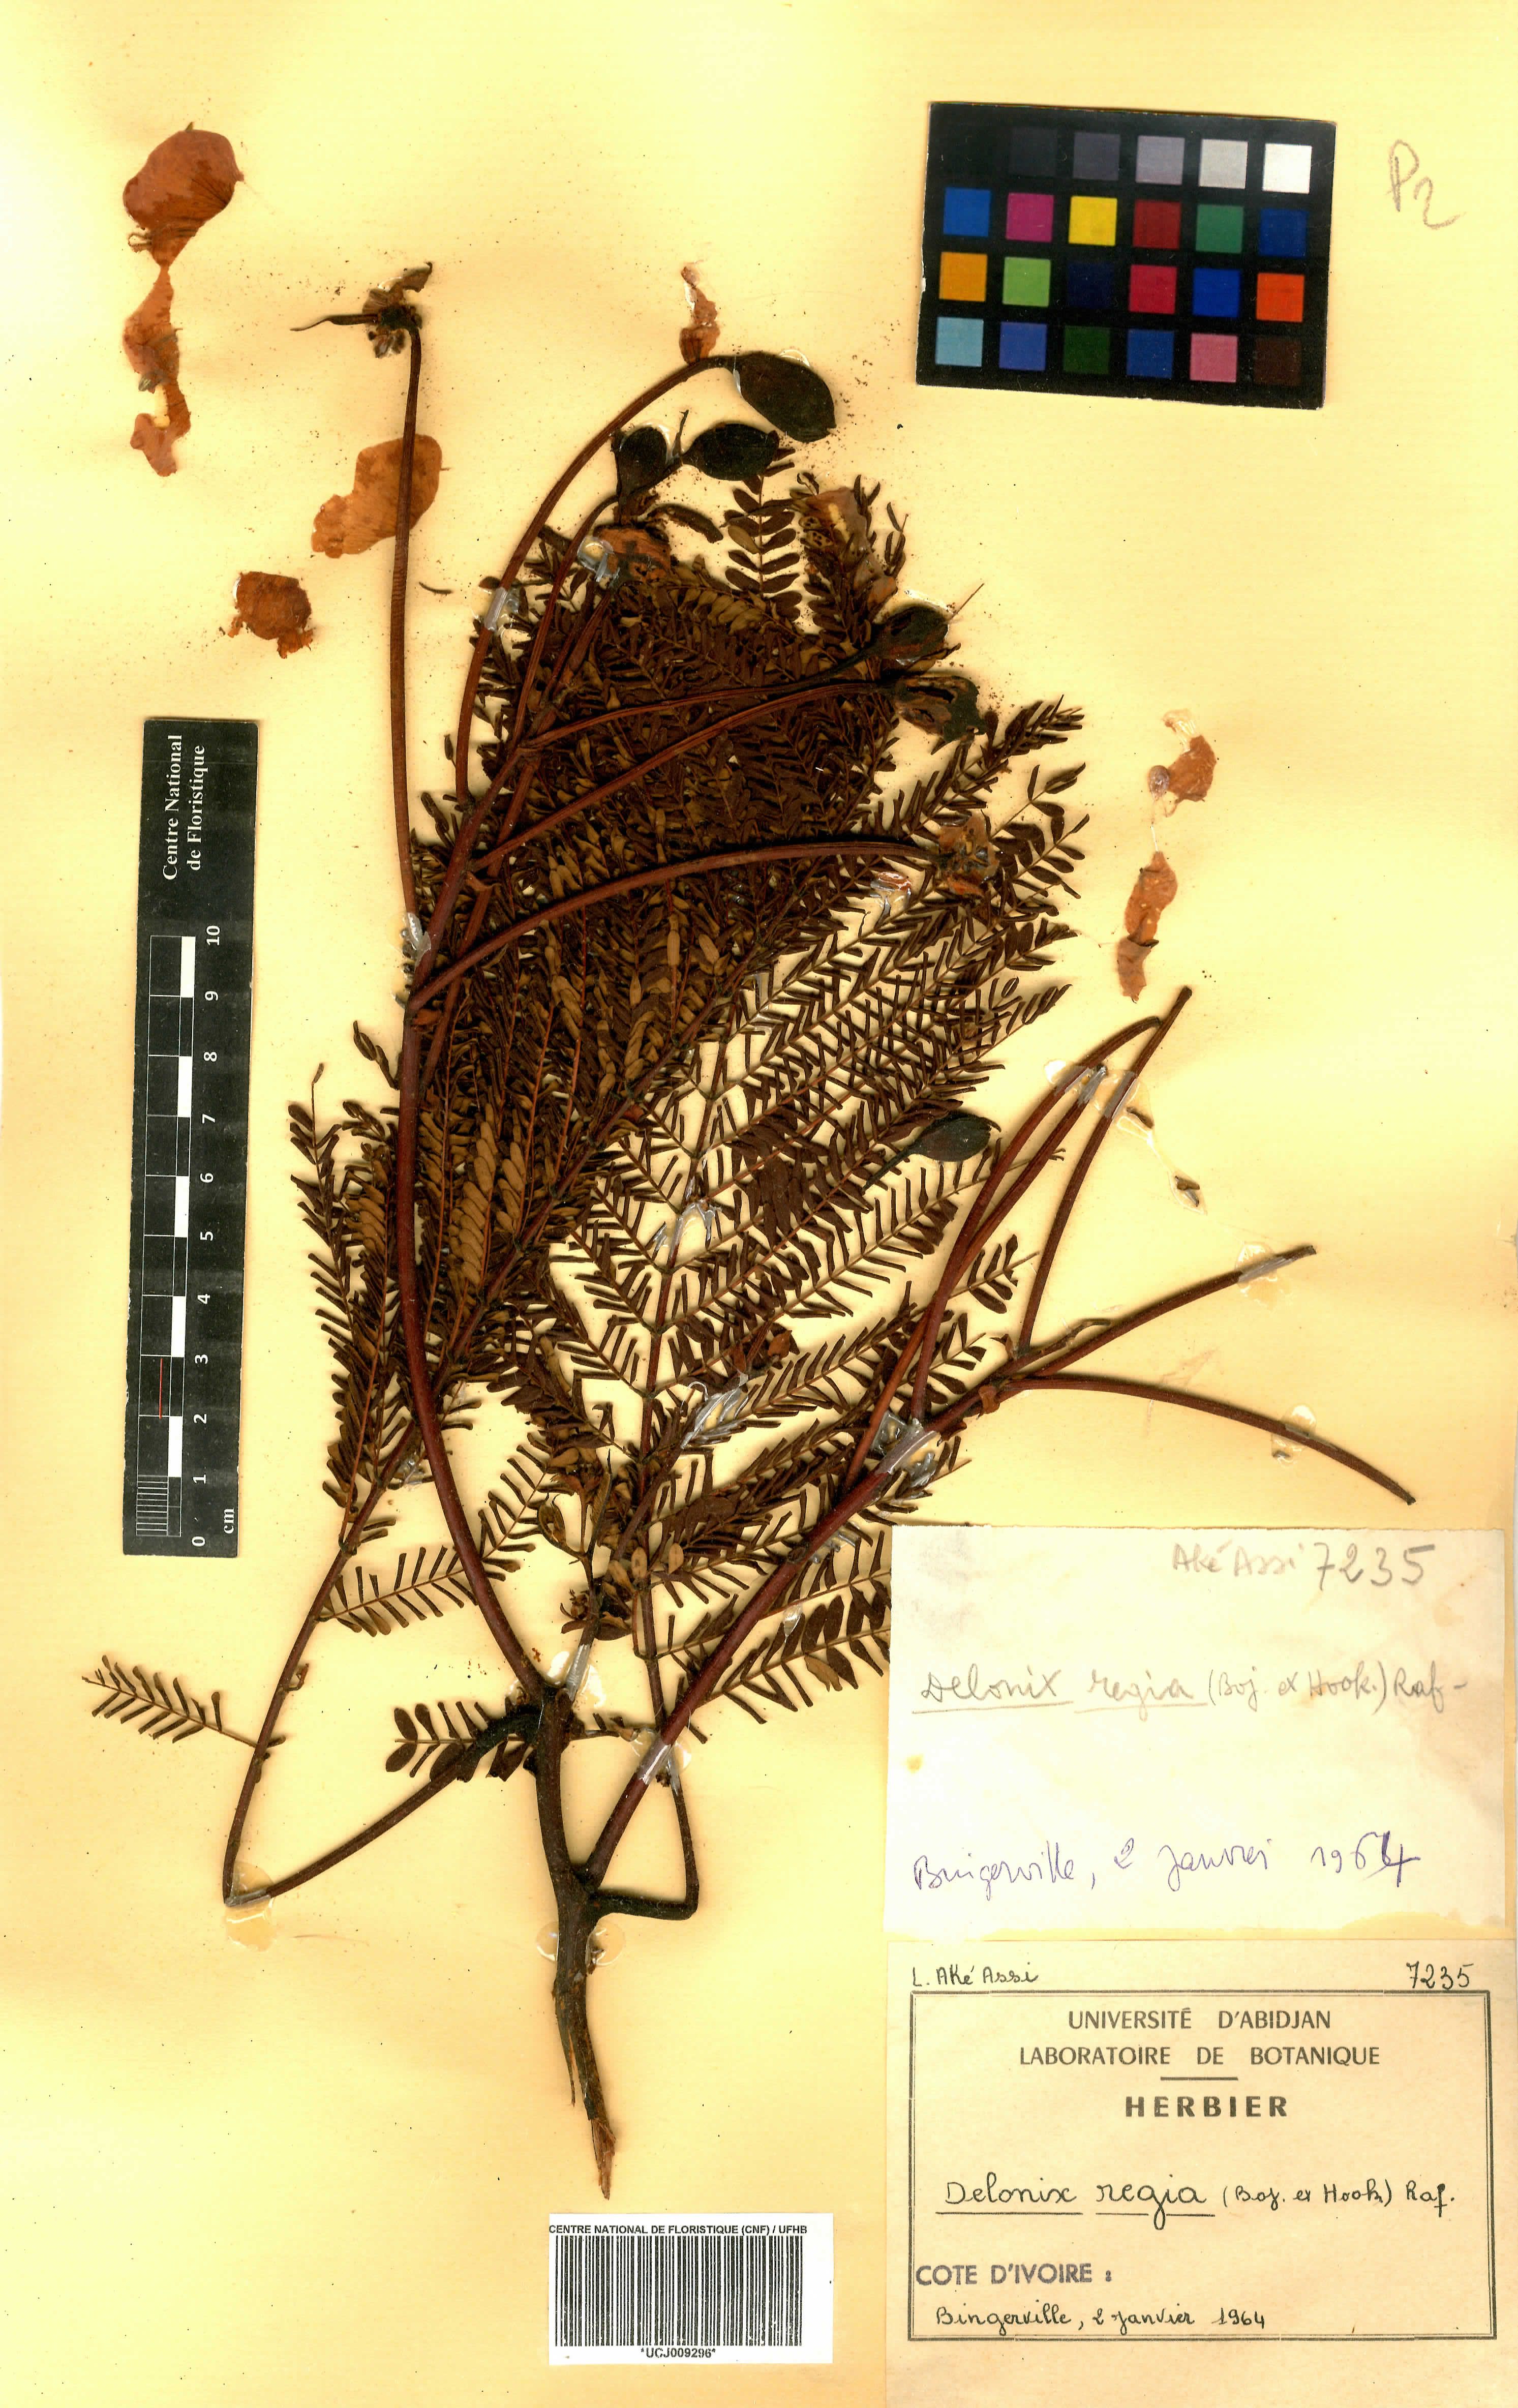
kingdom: Plantae
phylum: Tracheophyta
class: Magnoliopsida
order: Fabales
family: Fabaceae
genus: Delonix
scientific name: Delonix regia
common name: Royal poinciana
